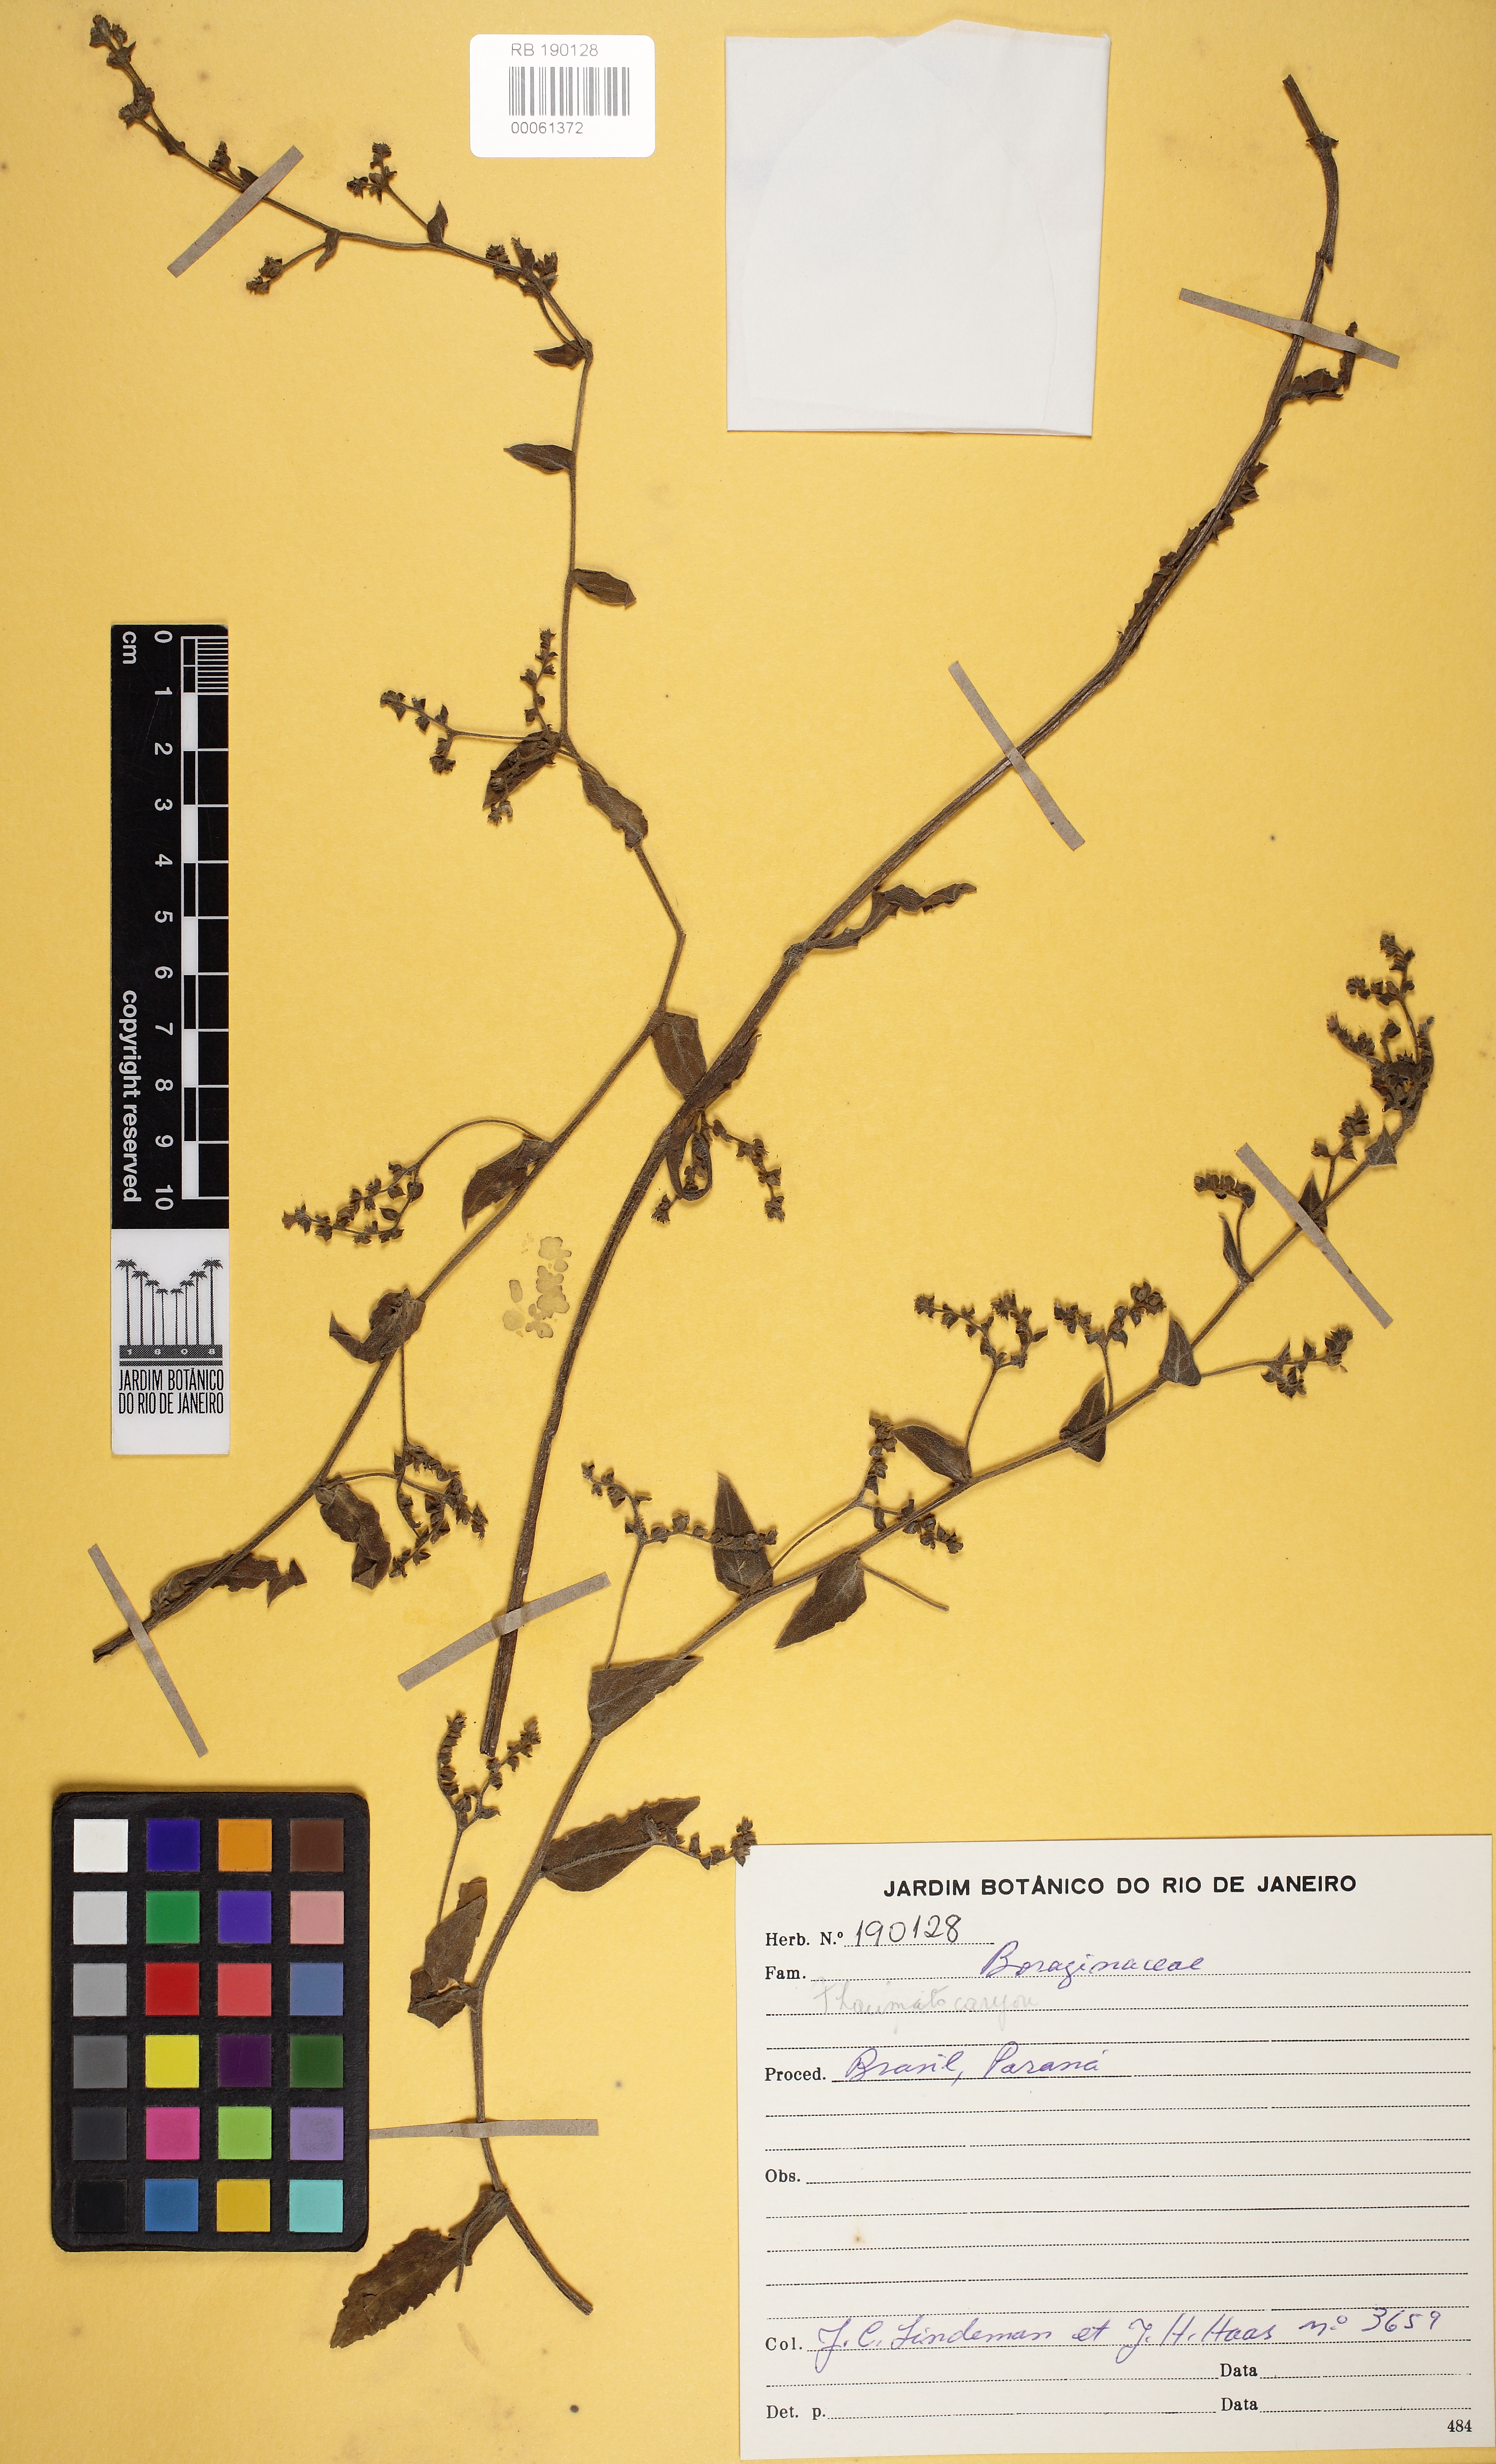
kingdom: Plantae
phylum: Tracheophyta
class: Magnoliopsida
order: Boraginales
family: Boraginaceae
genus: Thaumatocaryon
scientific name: Thaumatocaryon
